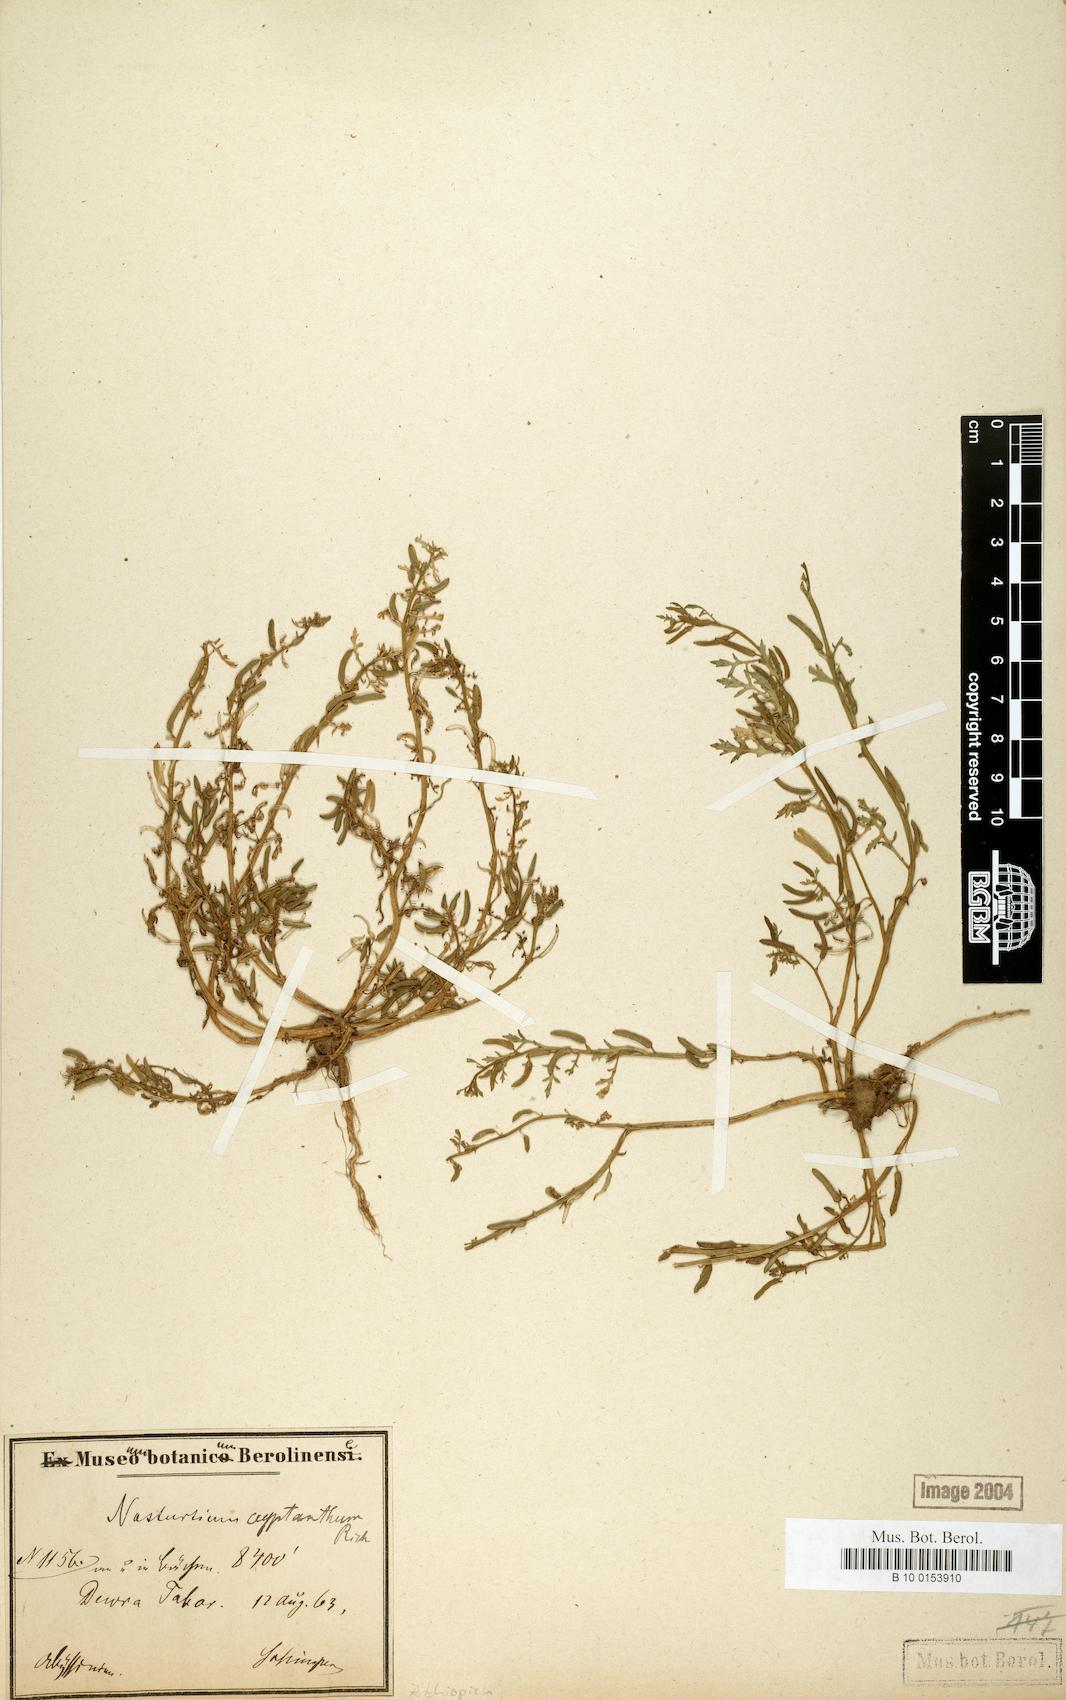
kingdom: Plantae
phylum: Tracheophyta
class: Magnoliopsida
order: Brassicales
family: Brassicaceae
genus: Rorippa
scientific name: Rorippa cryptantha
